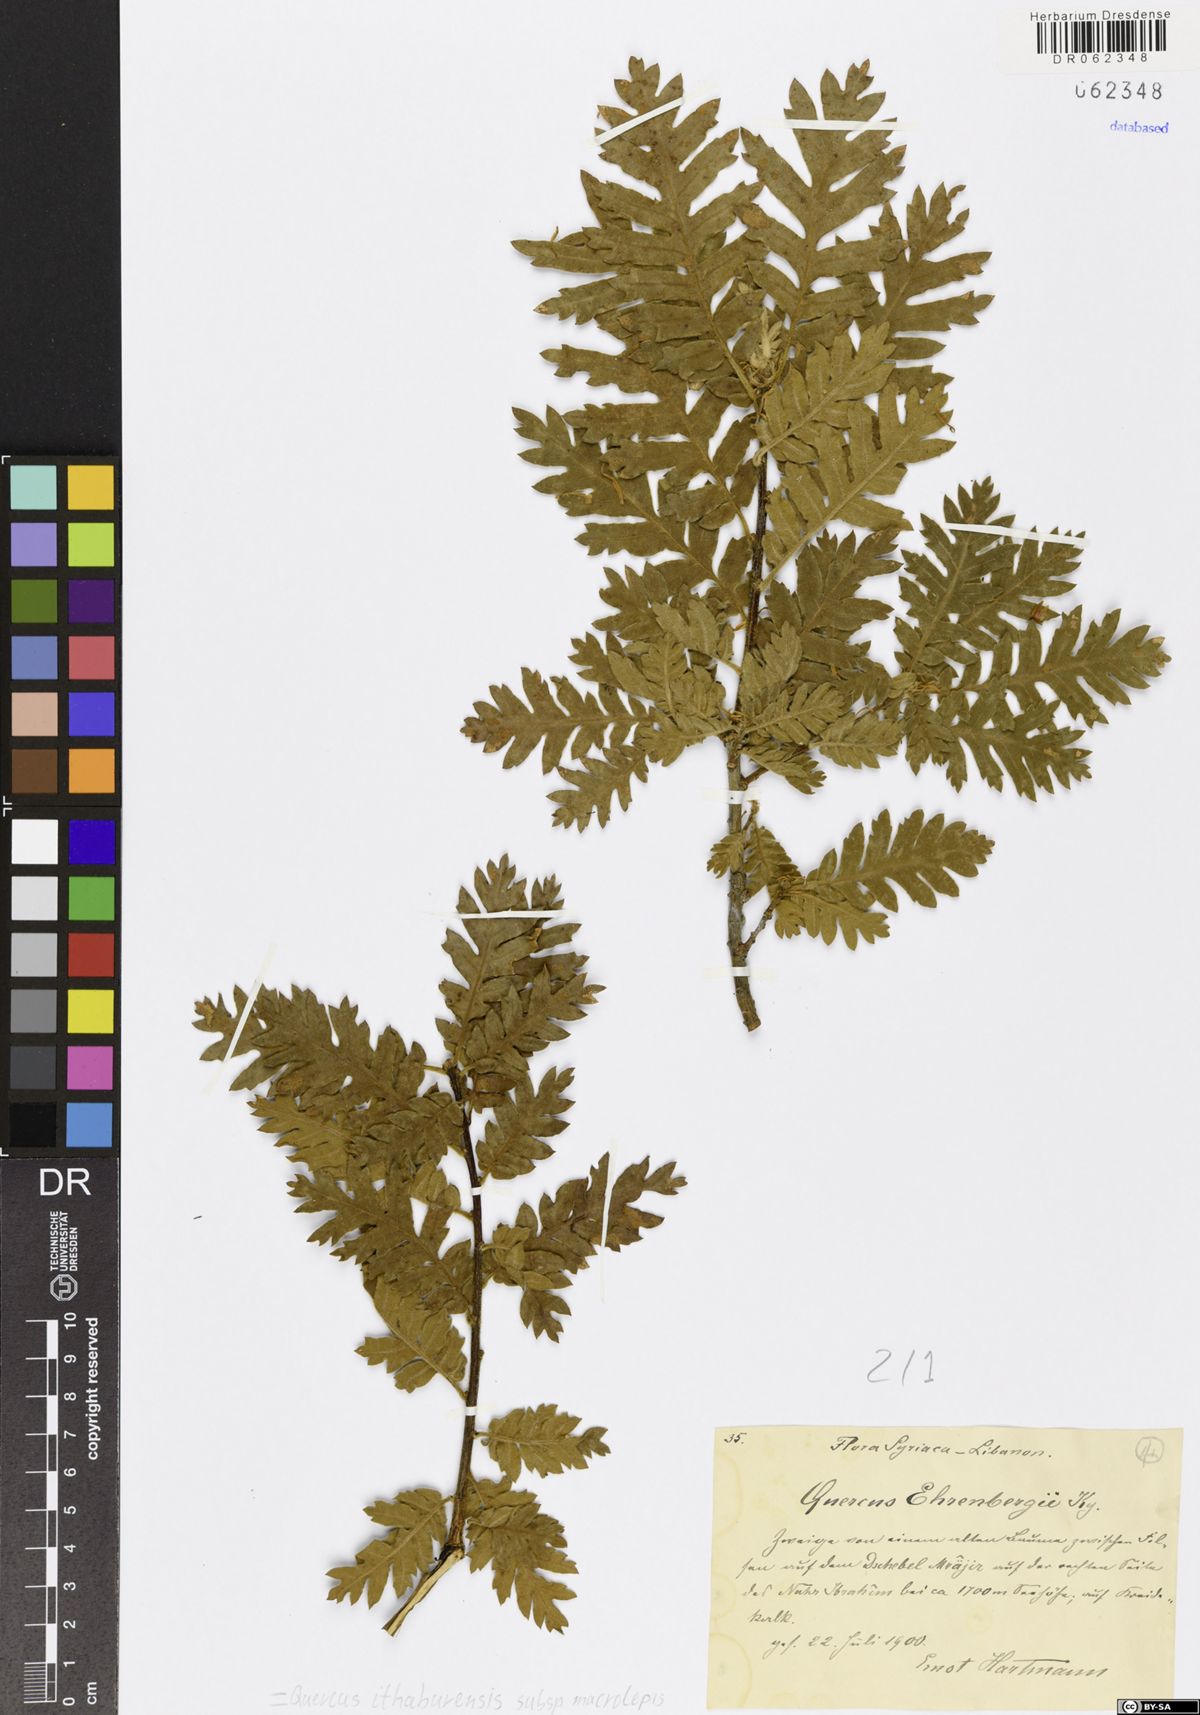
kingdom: Plantae
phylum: Tracheophyta
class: Magnoliopsida
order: Fagales
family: Fagaceae
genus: Quercus
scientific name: Quercus ithaburensis
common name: Tabor oak
